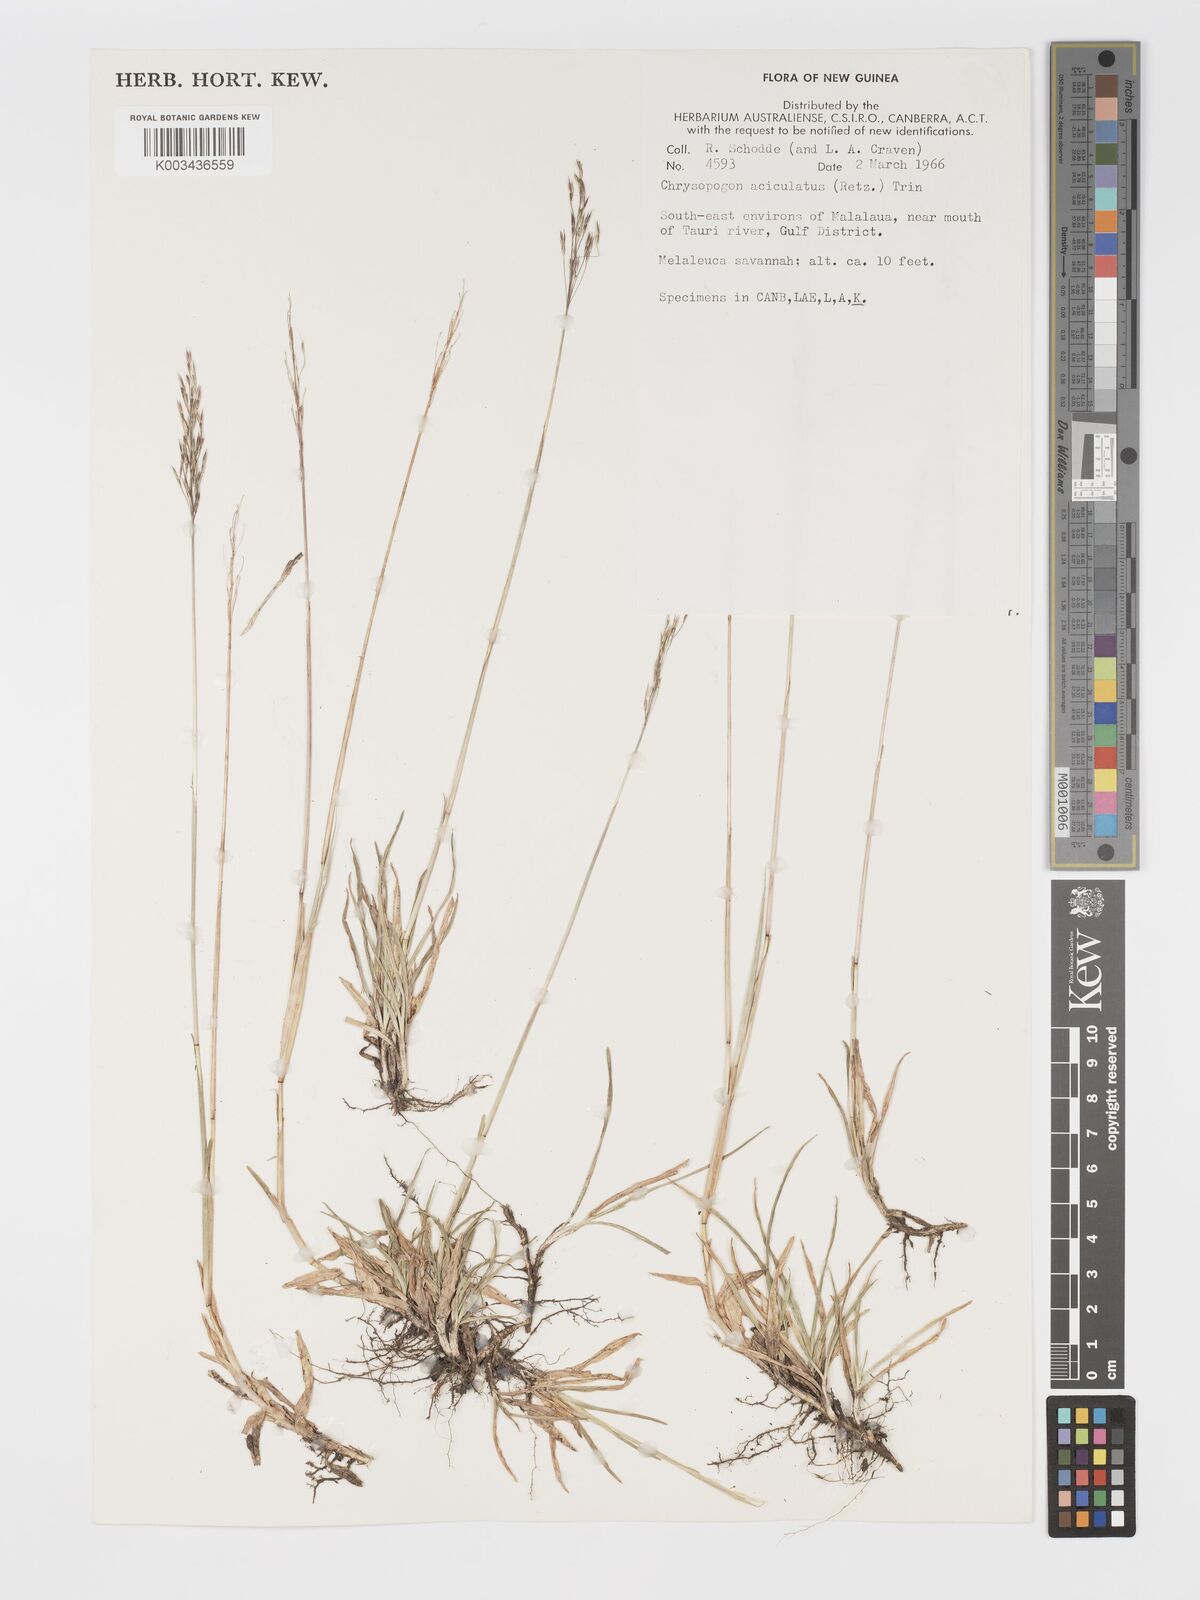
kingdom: Plantae
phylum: Tracheophyta
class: Liliopsida
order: Poales
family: Poaceae
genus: Chrysopogon
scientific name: Chrysopogon aciculatus
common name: Pilipiliula
